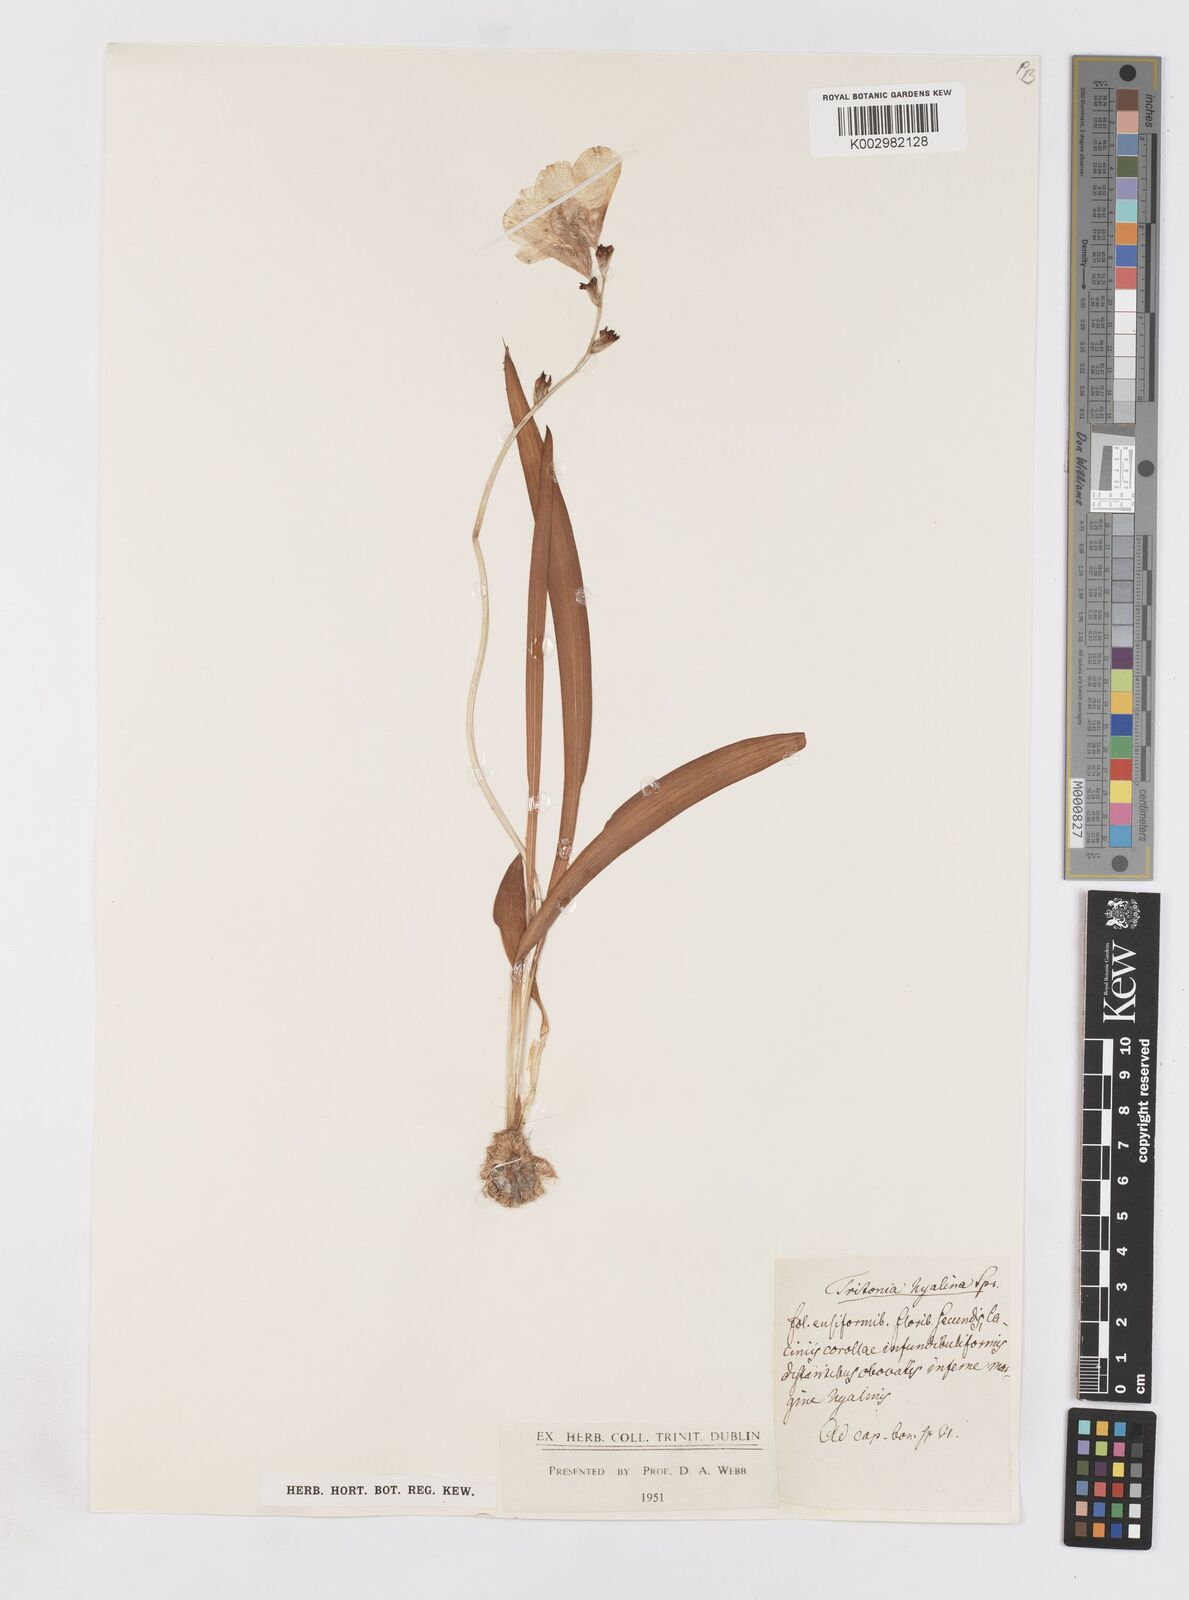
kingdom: Plantae
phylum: Tracheophyta
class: Liliopsida
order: Asparagales
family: Iridaceae
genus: Tritonia
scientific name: Tritonia crocata
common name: Flame-freesia
